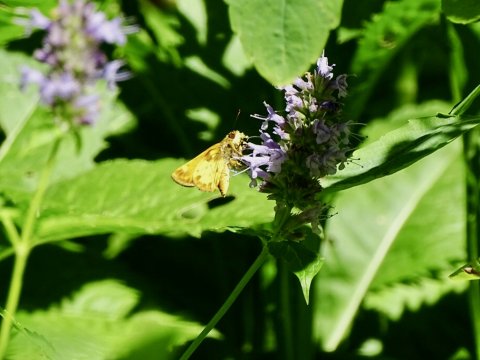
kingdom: Animalia
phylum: Arthropoda
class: Insecta
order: Lepidoptera
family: Hesperiidae
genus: Lon
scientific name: Lon zabulon
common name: Zabulon Skipper
